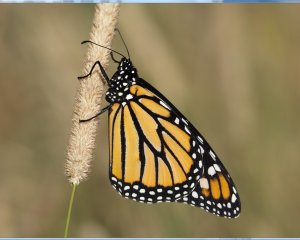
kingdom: Animalia
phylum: Arthropoda
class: Insecta
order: Lepidoptera
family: Nymphalidae
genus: Danaus
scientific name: Danaus plexippus
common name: Monarch
